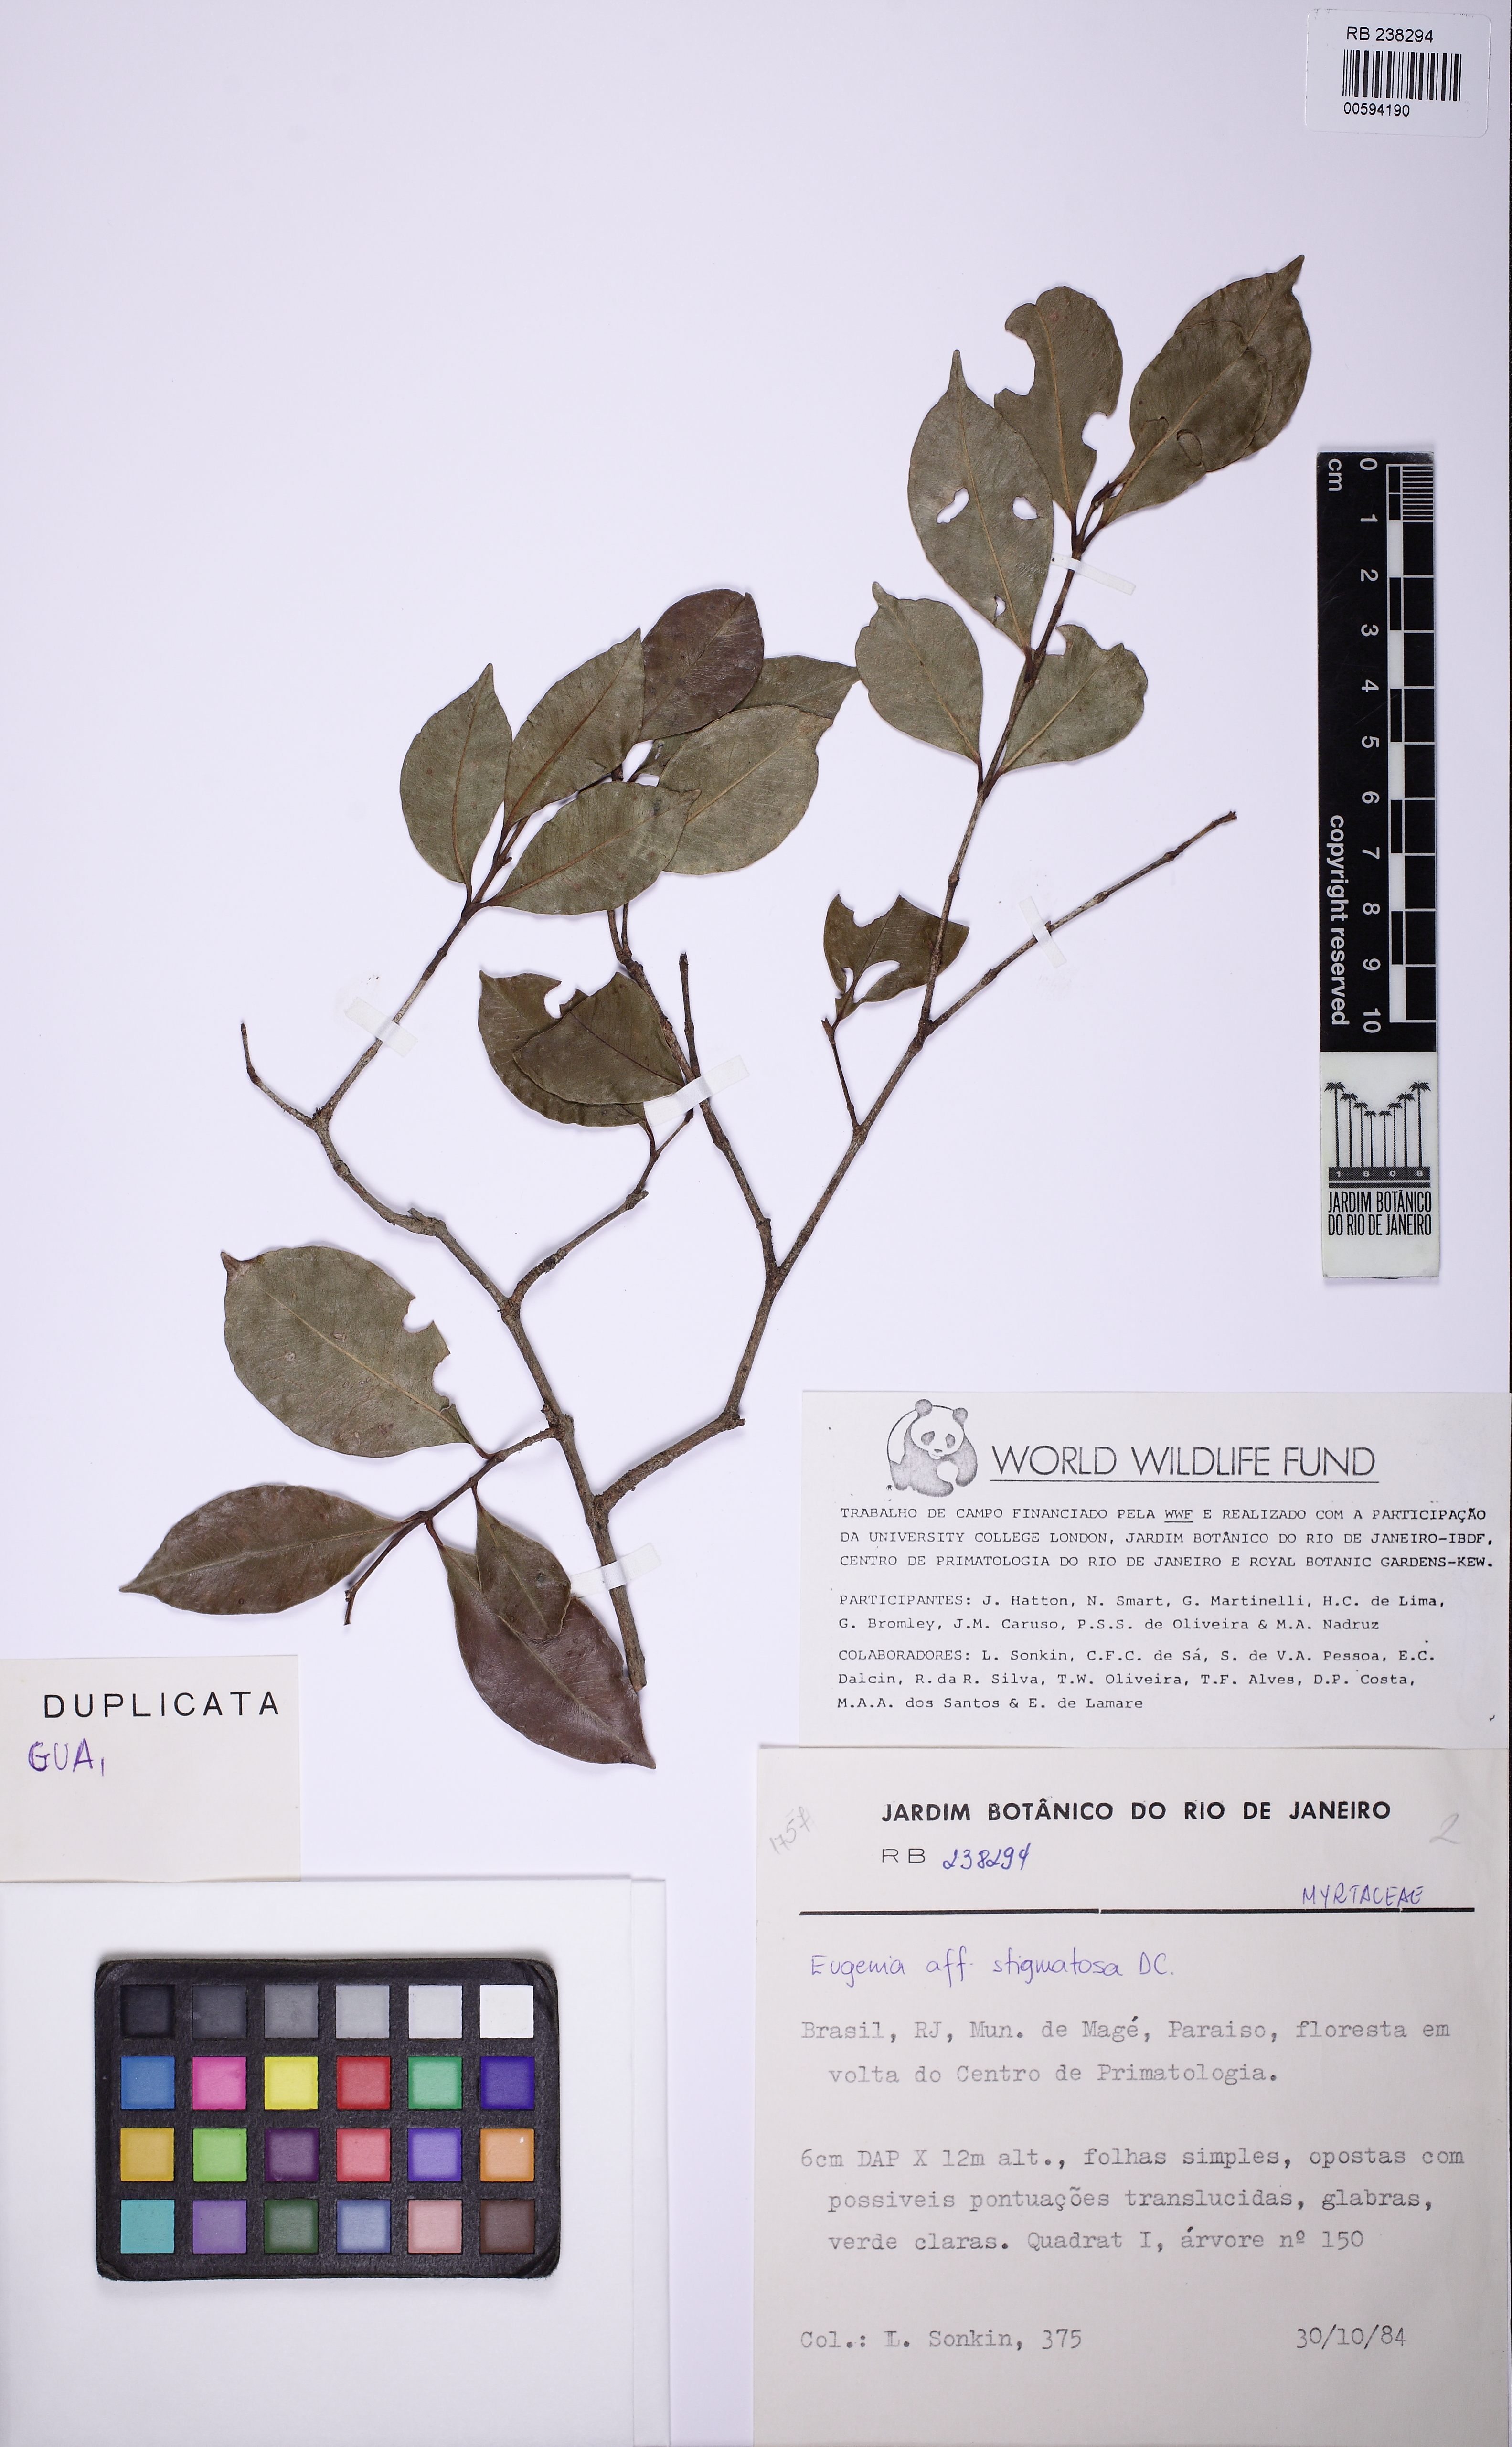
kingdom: Plantae
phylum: Tracheophyta
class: Magnoliopsida
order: Myrtales
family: Myrtaceae
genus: Eugenia
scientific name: Eugenia stigmatosa
